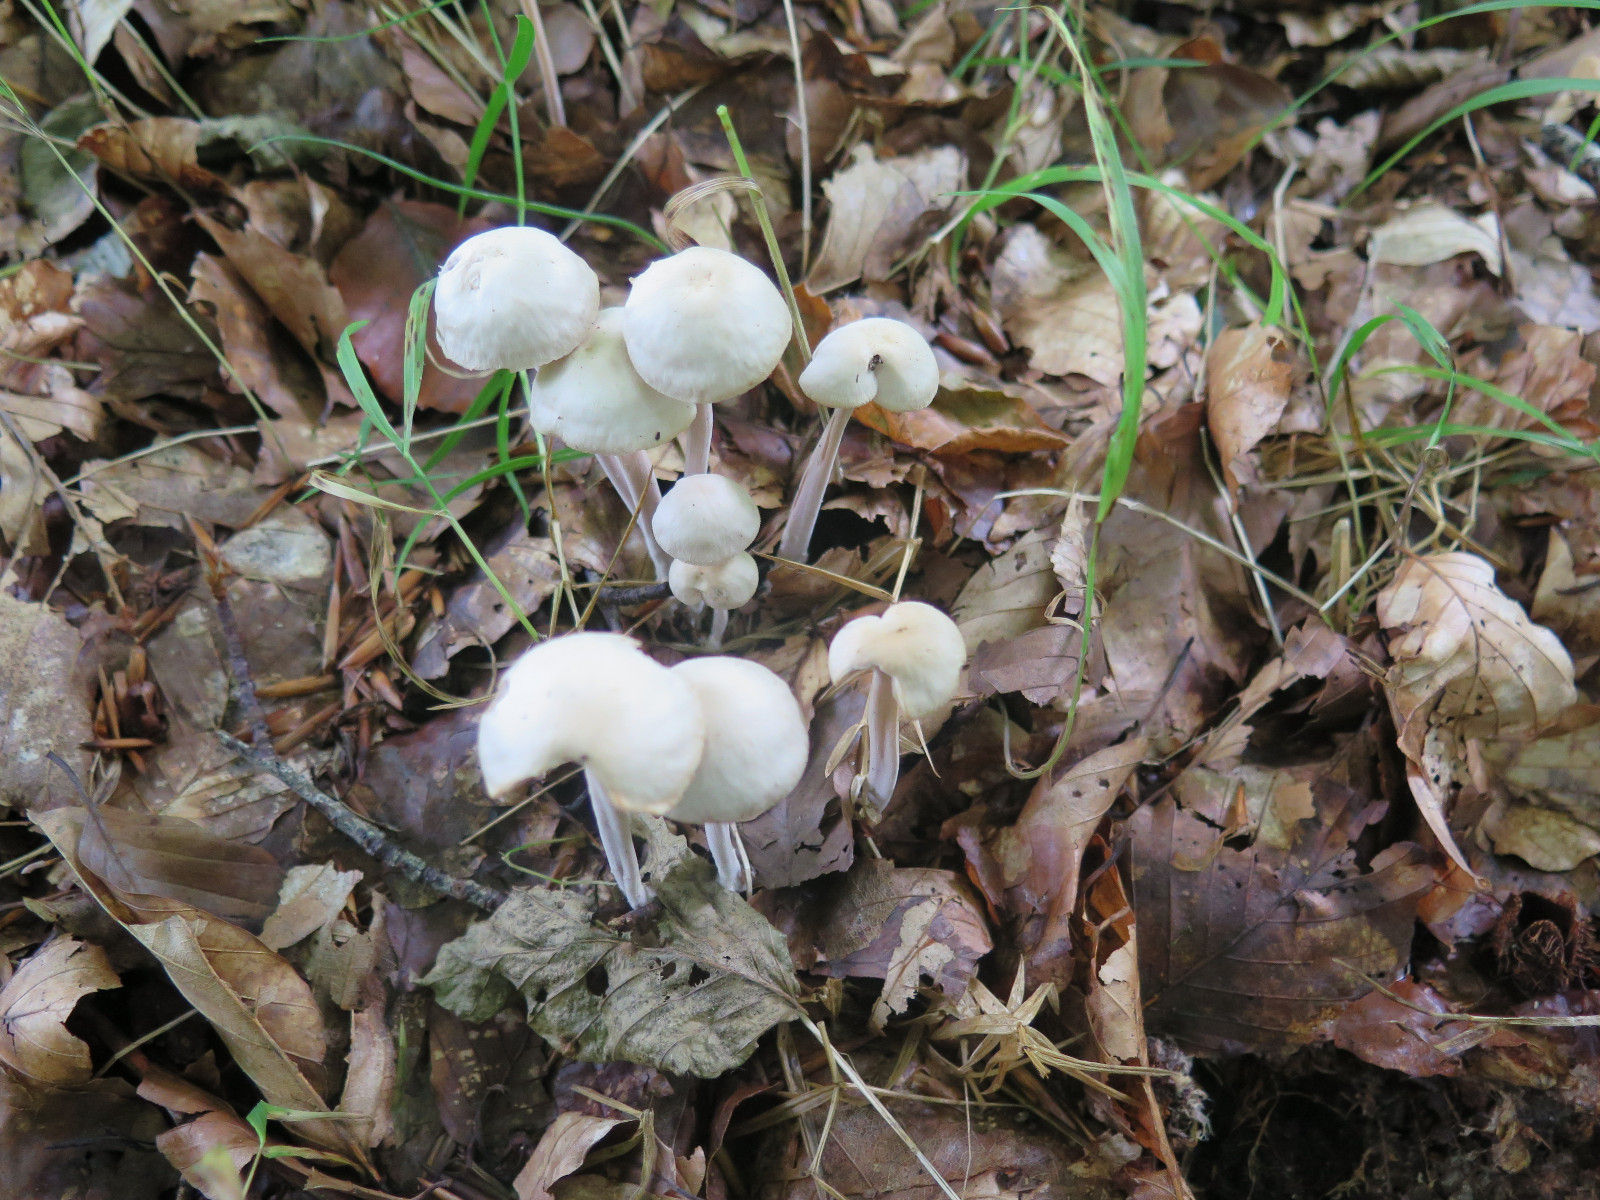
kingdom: Fungi
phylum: Basidiomycota
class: Agaricomycetes
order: Agaricales
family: Omphalotaceae
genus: Collybiopsis
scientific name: Collybiopsis confluens
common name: knippe-fladhat
